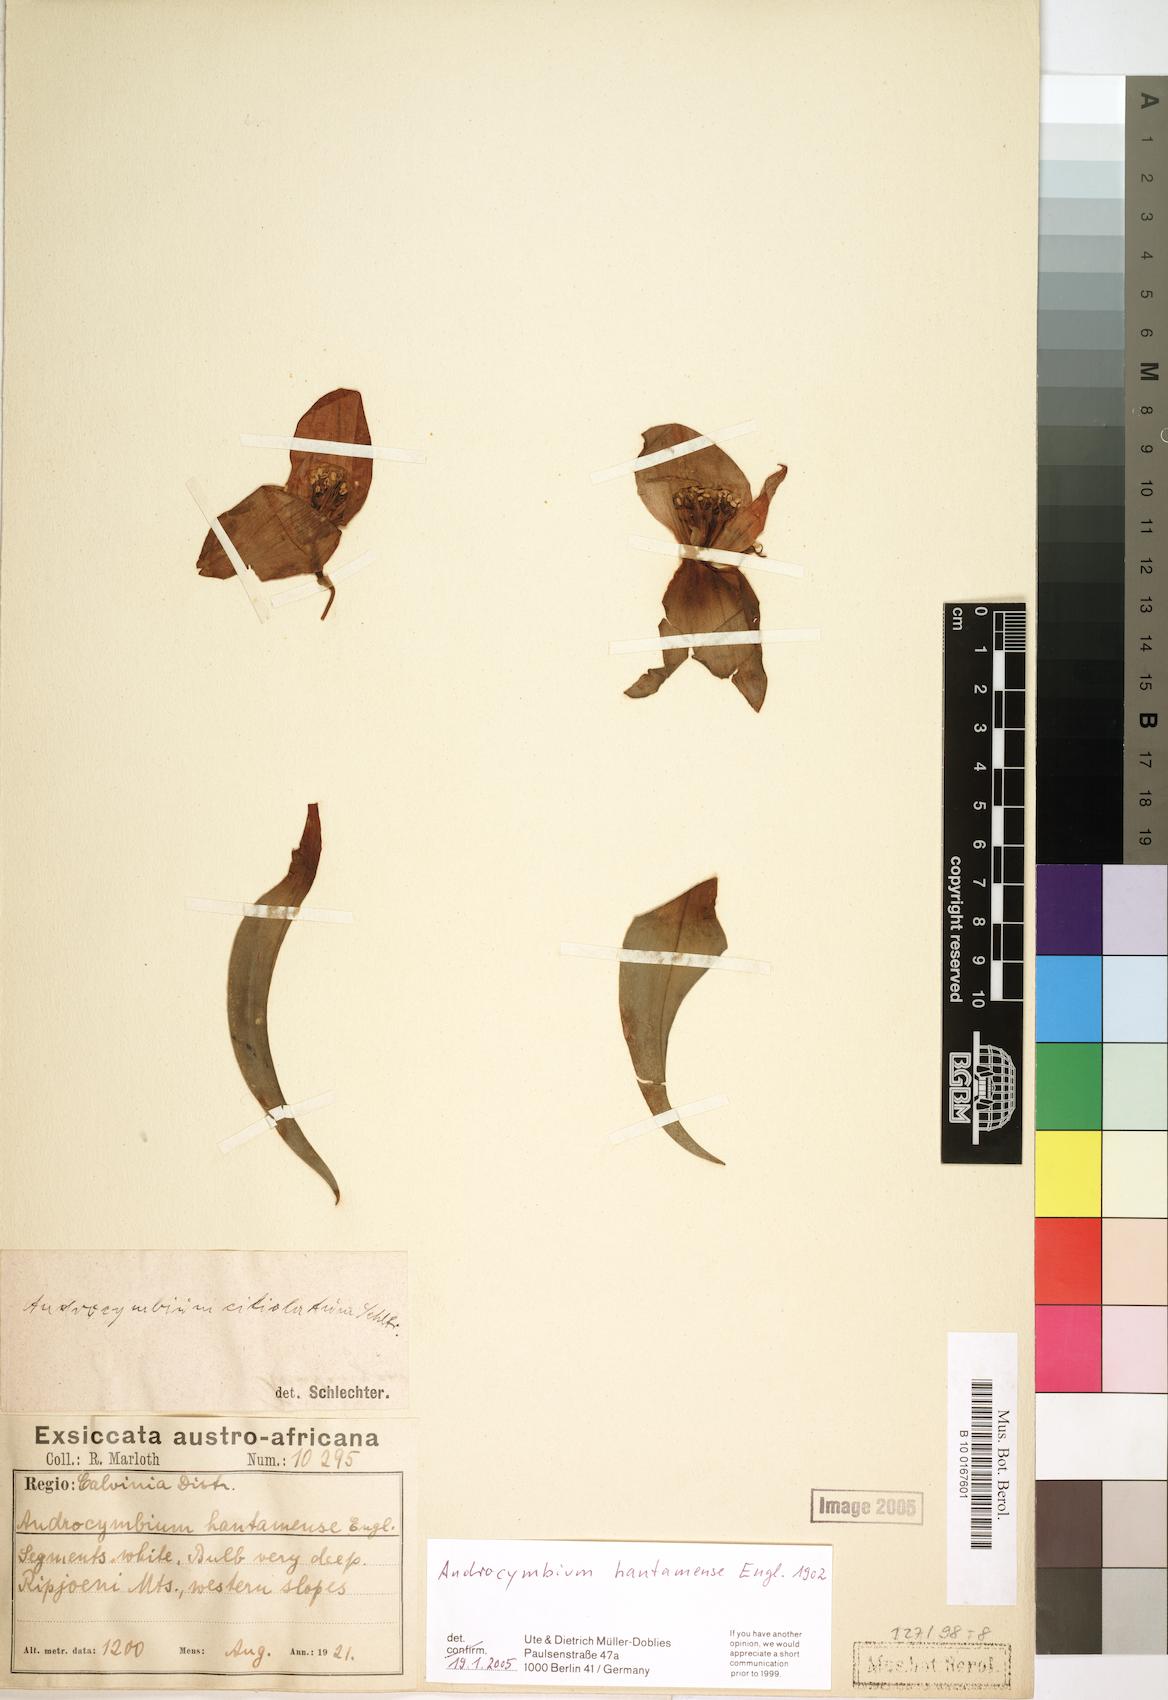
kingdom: Plantae
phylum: Tracheophyta
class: Liliopsida
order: Liliales
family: Colchicaceae
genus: Colchicum
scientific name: Colchicum hantamense
